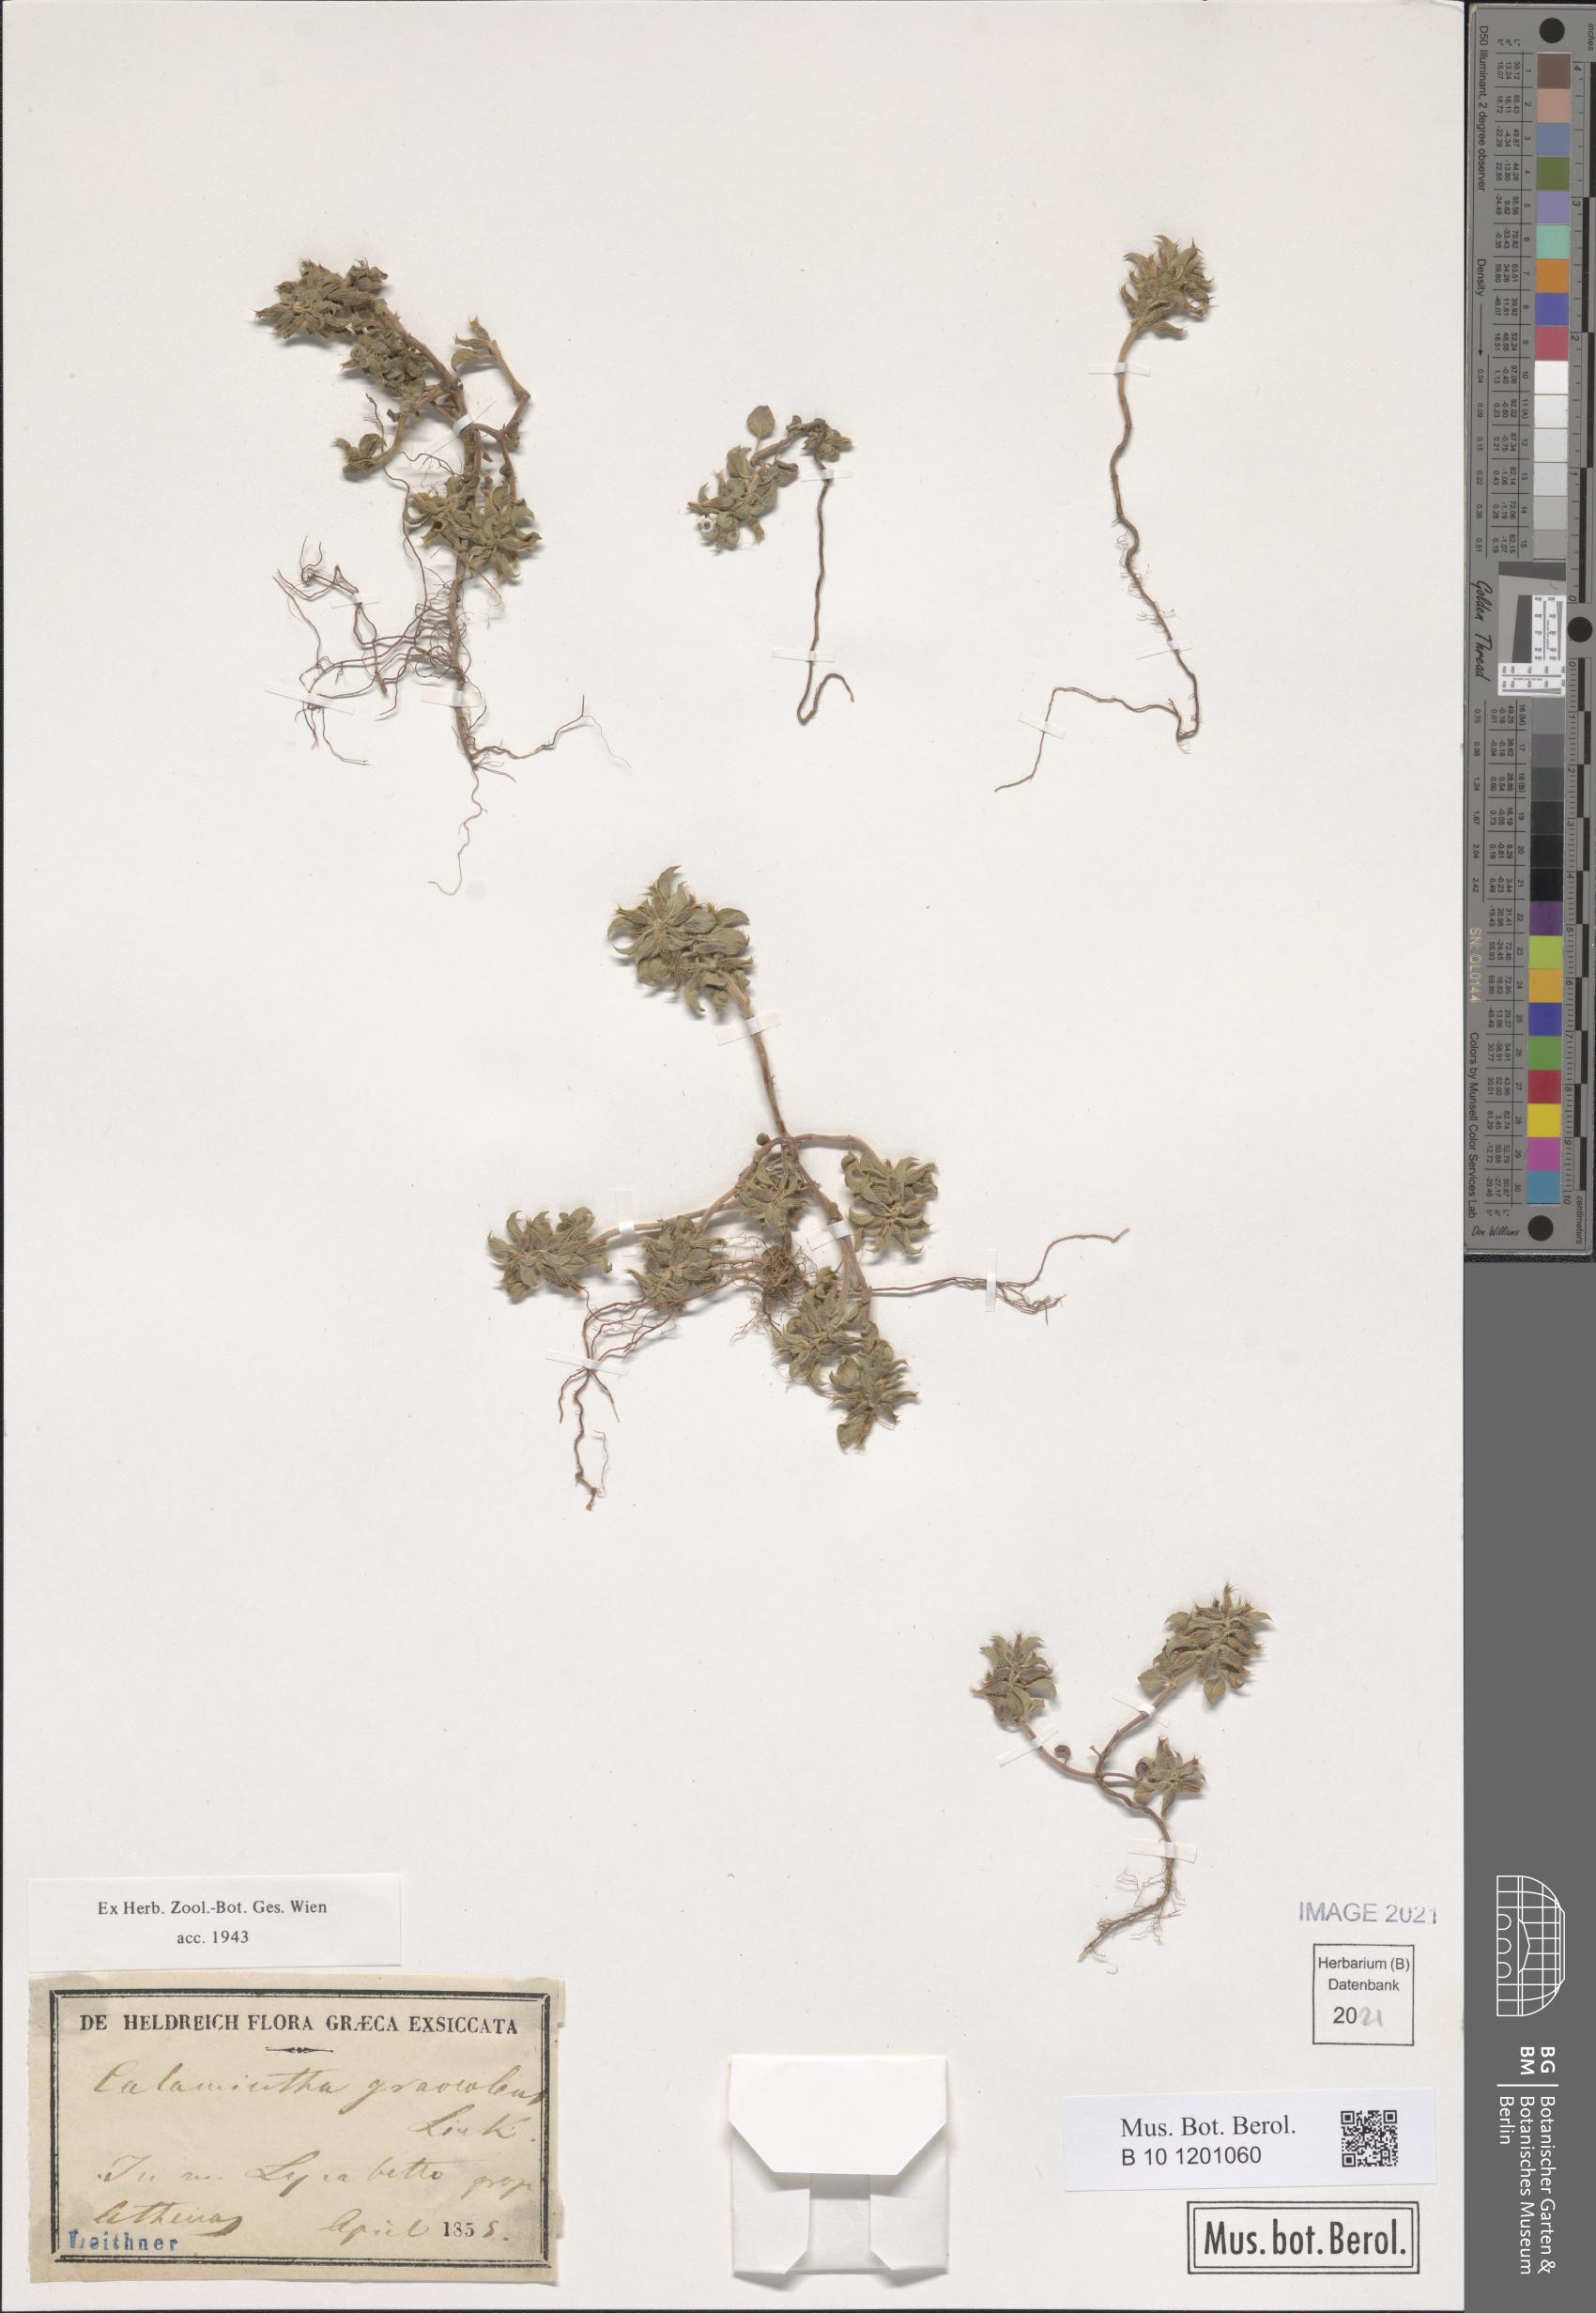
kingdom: Plantae
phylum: Tracheophyta
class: Magnoliopsida
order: Lamiales
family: Lamiaceae
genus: Clinopodium
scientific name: Clinopodium graveolens
